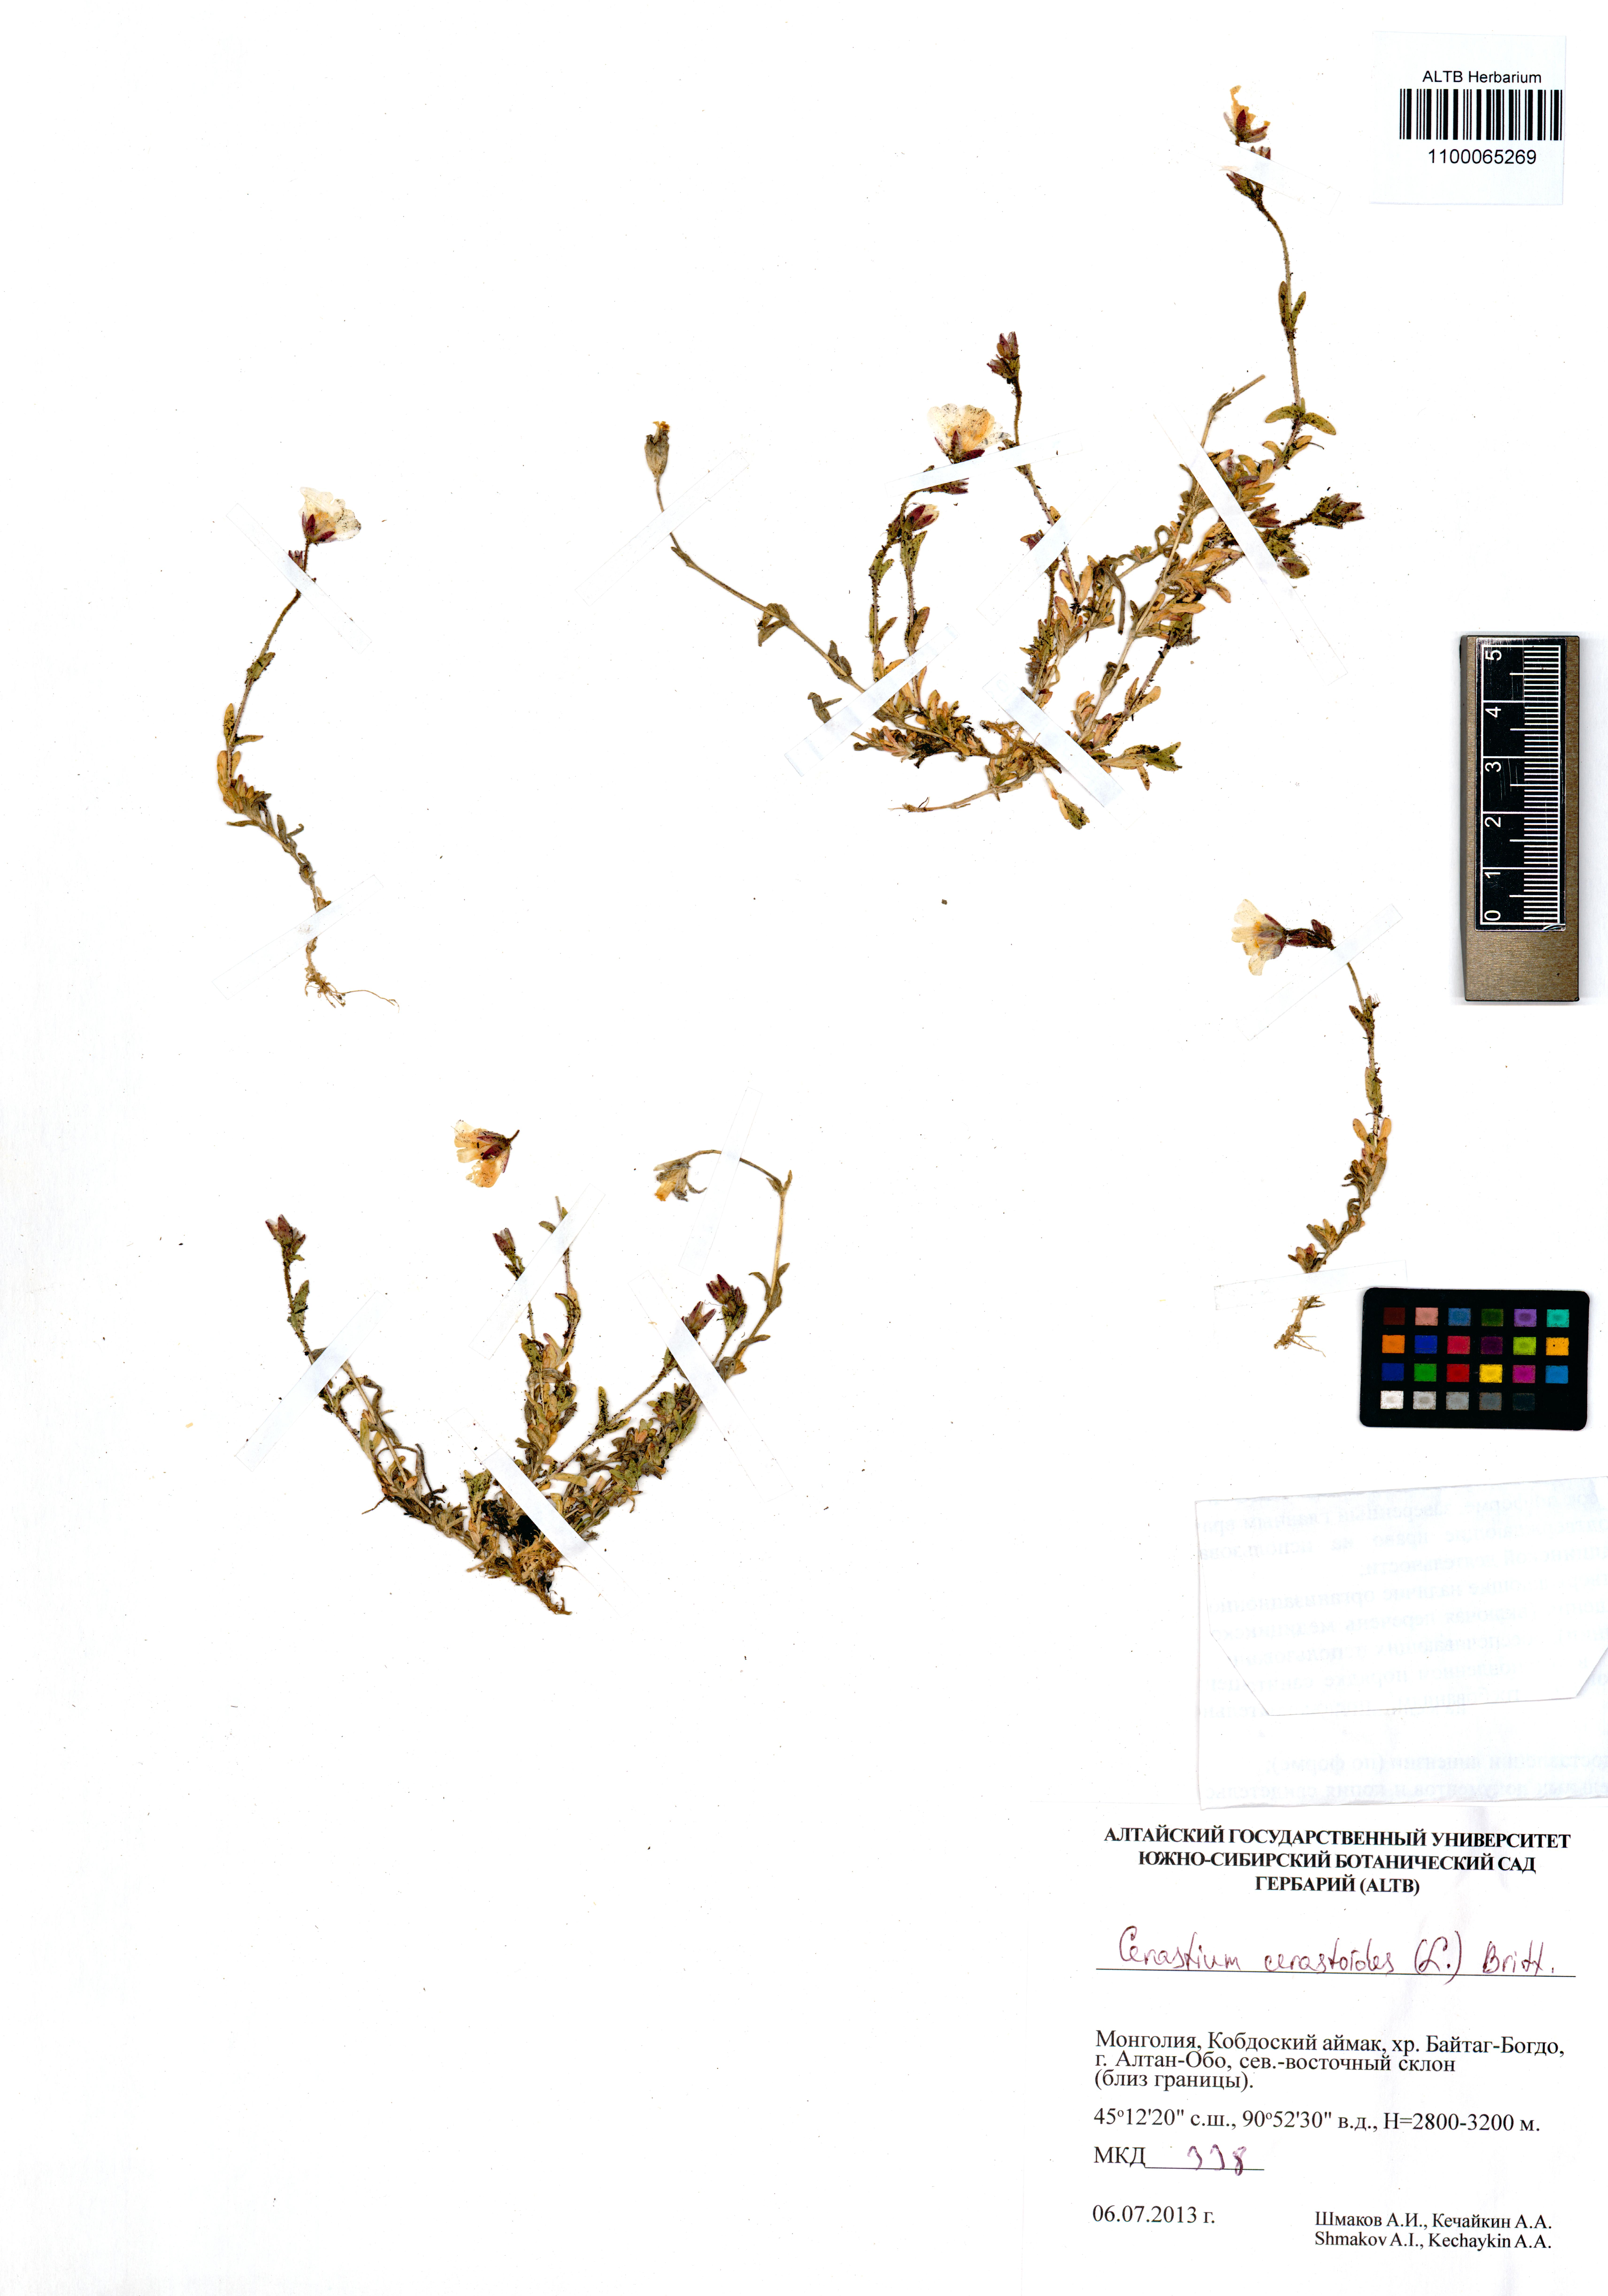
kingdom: Plantae
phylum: Tracheophyta
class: Magnoliopsida
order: Caryophyllales
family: Caryophyllaceae
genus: Dichodon
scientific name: Dichodon cerastoides
